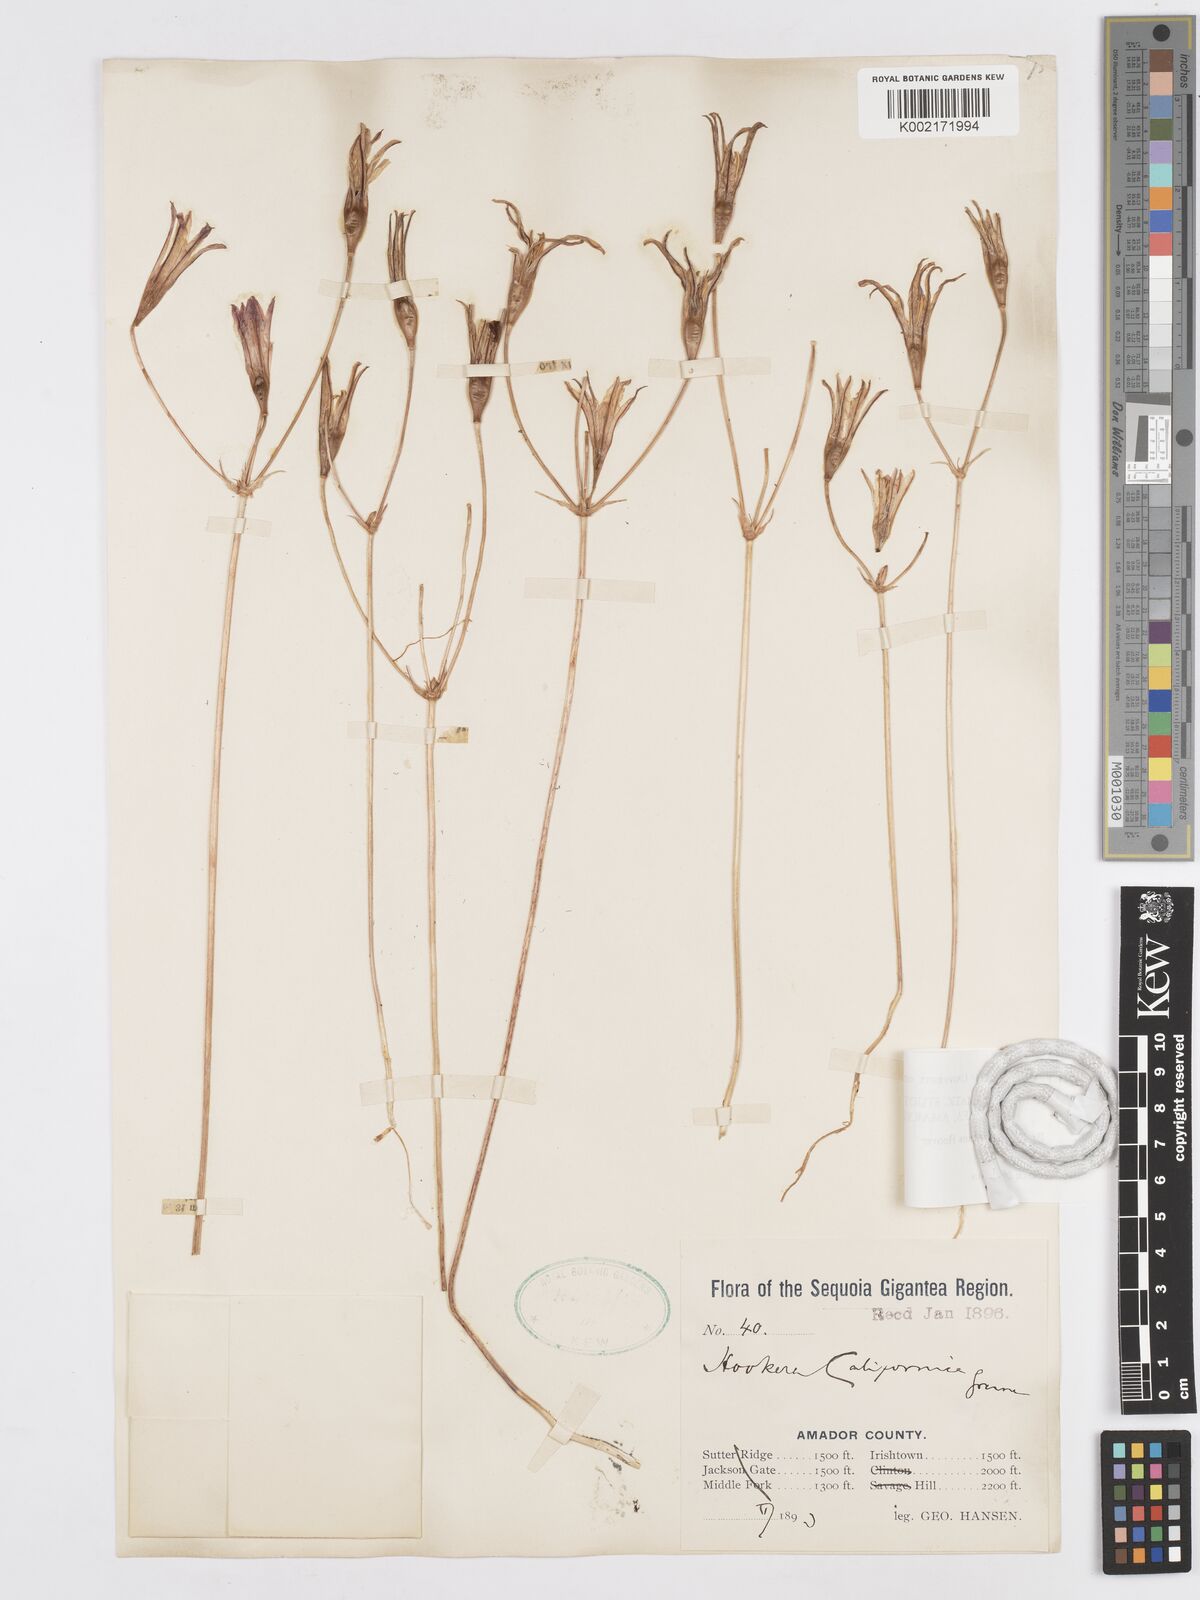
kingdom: Plantae
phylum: Tracheophyta
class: Liliopsida
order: Asparagales
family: Asparagaceae
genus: Brodiaea
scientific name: Brodiaea elegans
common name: Elegant cluster-lily
